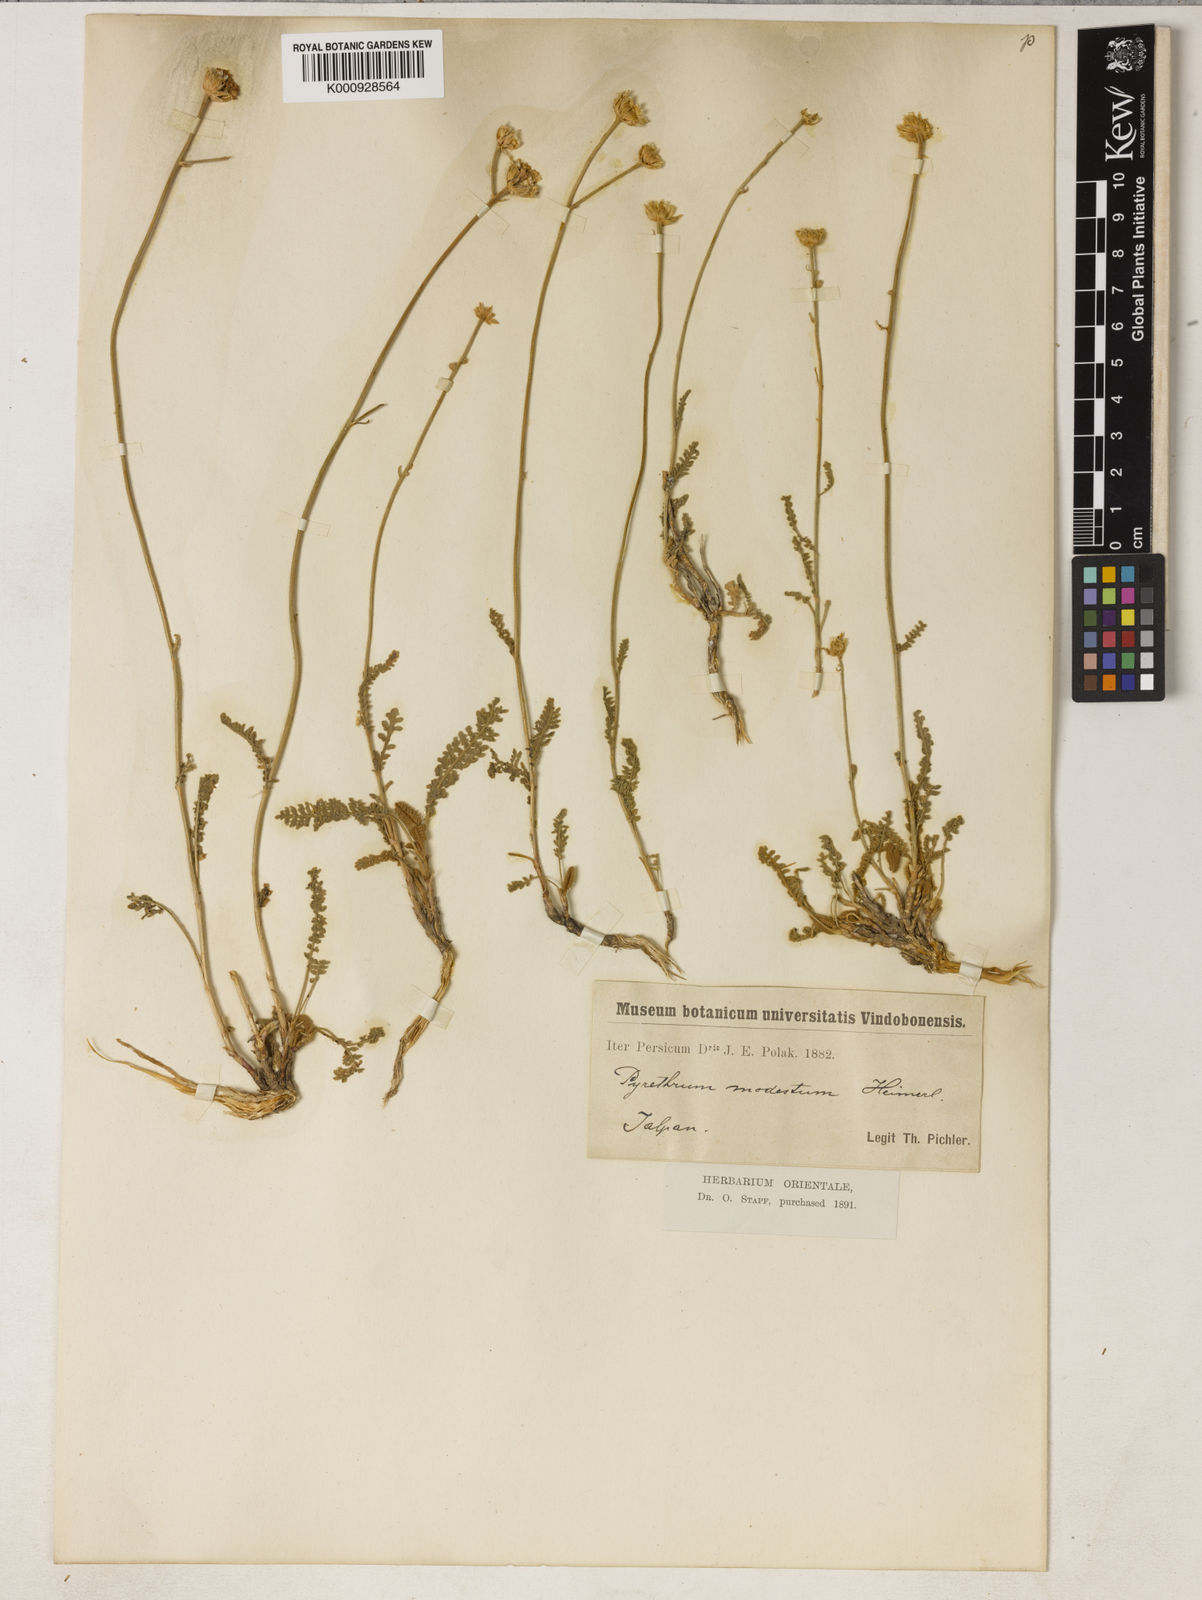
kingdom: Plantae
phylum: Tracheophyta
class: Magnoliopsida
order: Asterales
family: Asteraceae
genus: Tanacetum
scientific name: Tanacetum canescens
